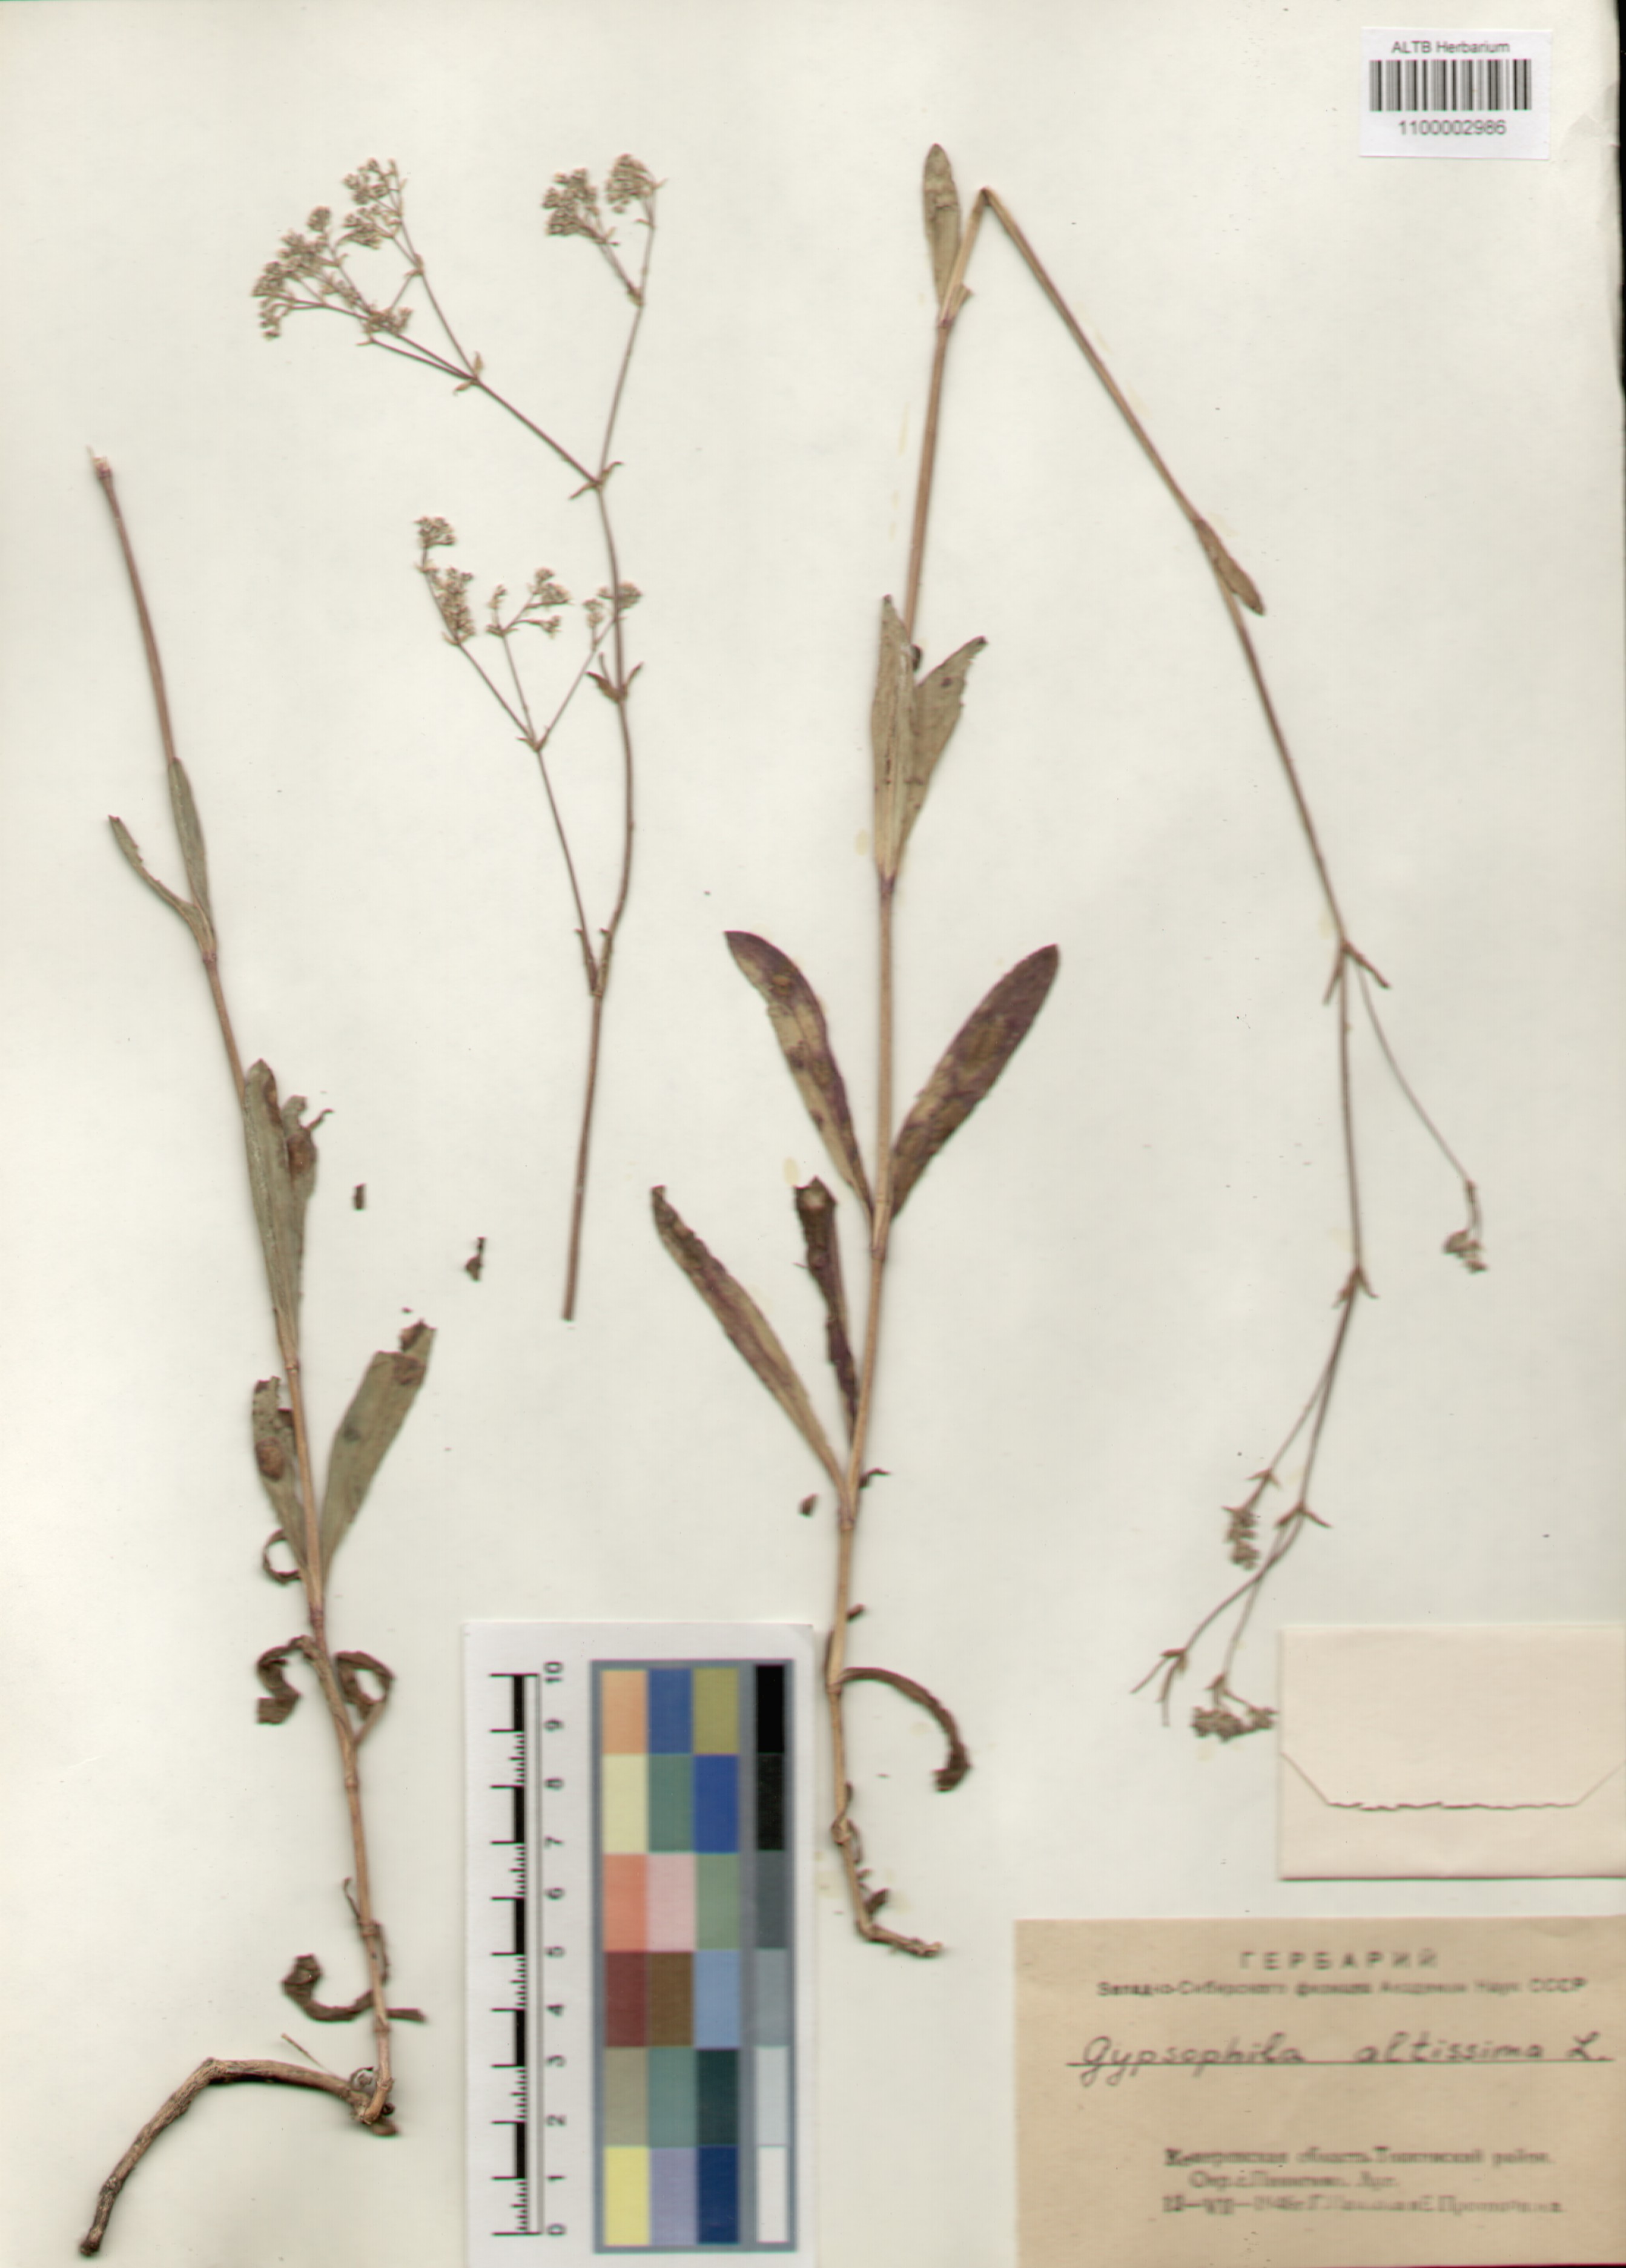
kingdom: Plantae
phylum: Tracheophyta
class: Magnoliopsida
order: Caryophyllales
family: Caryophyllaceae
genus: Gypsophila
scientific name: Gypsophila altissima
